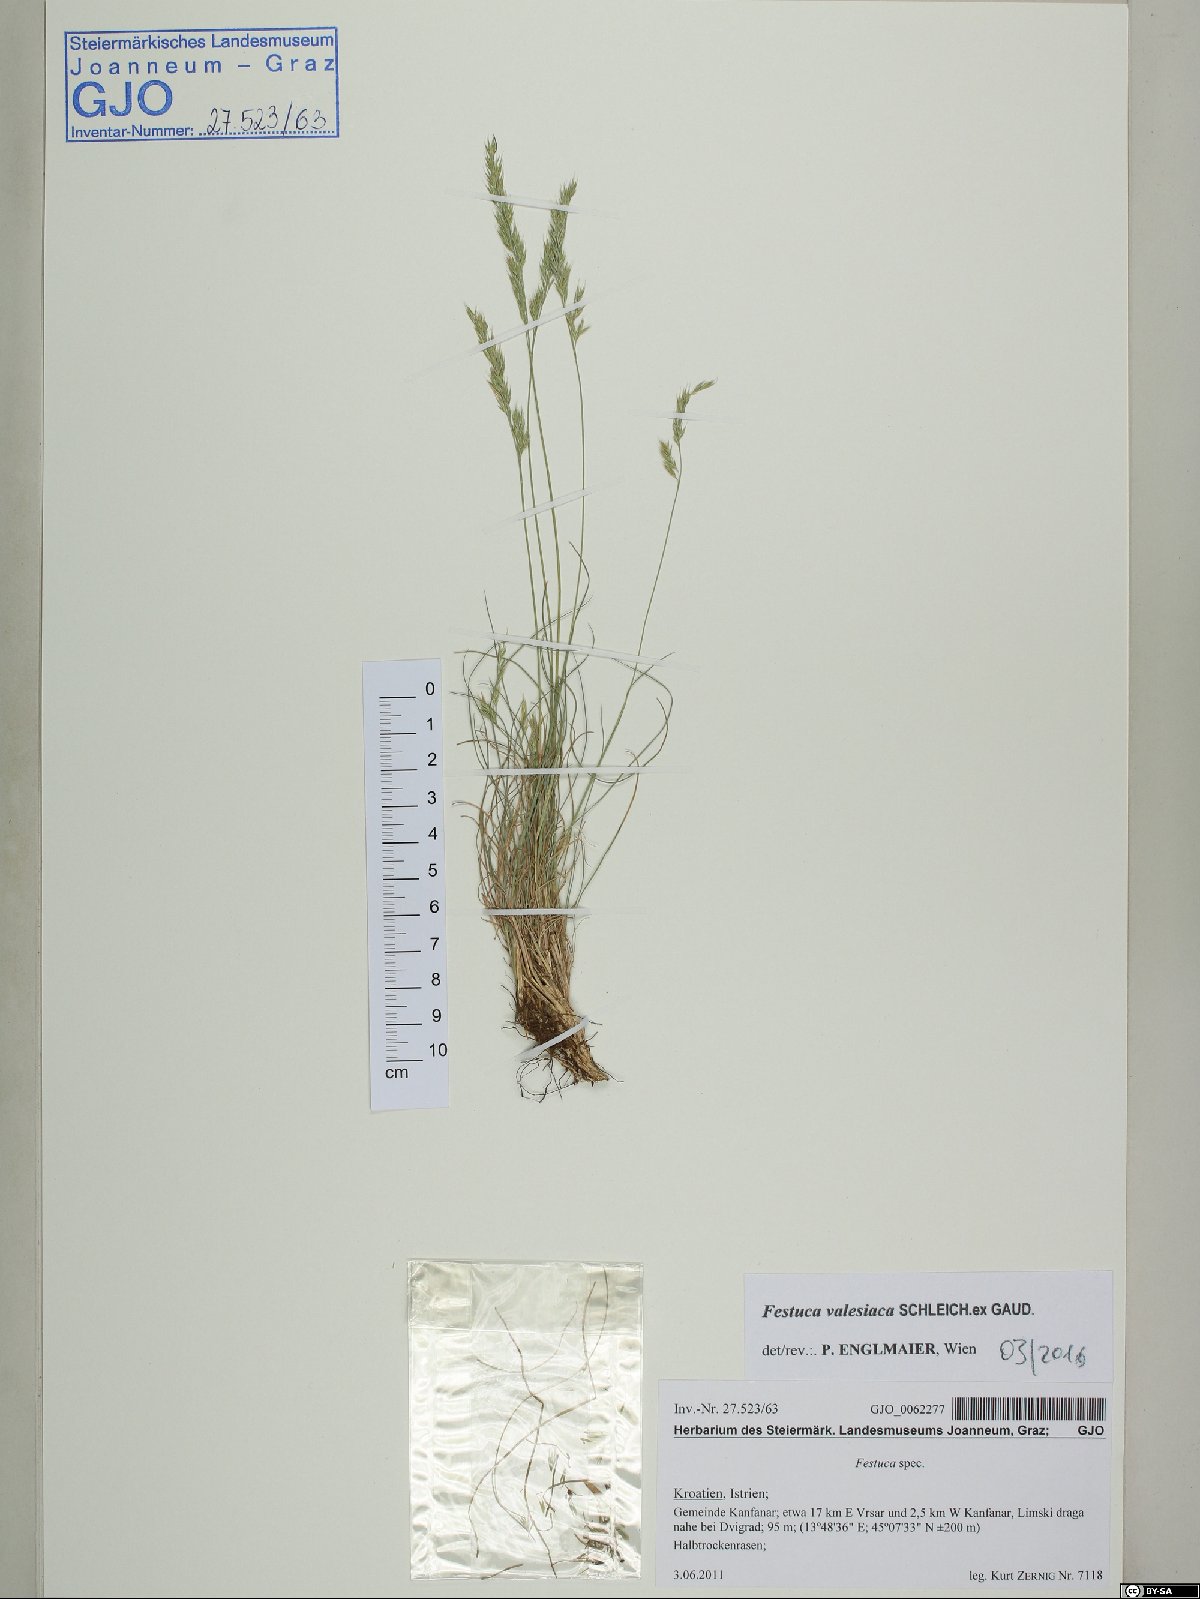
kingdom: Plantae
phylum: Tracheophyta
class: Liliopsida
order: Poales
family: Poaceae
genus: Festuca
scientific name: Festuca valesiaca
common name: Volga fescue
